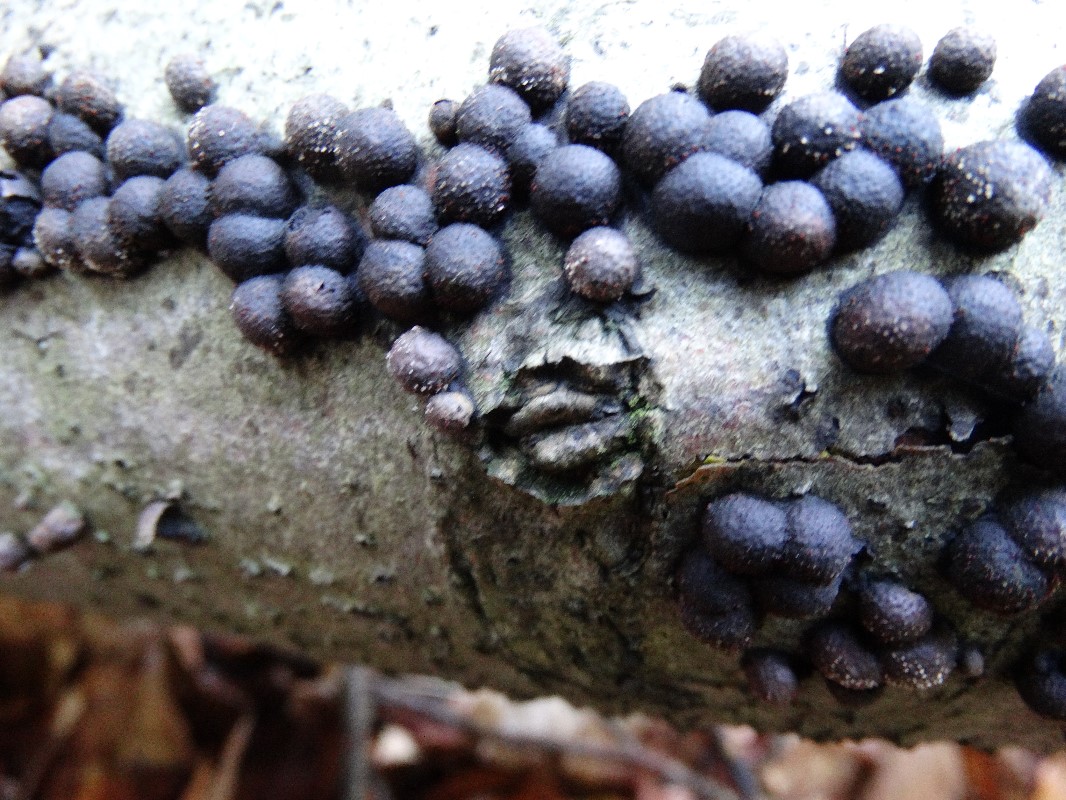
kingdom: Fungi
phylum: Ascomycota
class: Sordariomycetes
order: Xylariales
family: Hypoxylaceae
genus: Hypoxylon
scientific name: Hypoxylon fragiforme
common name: kuljordbær
